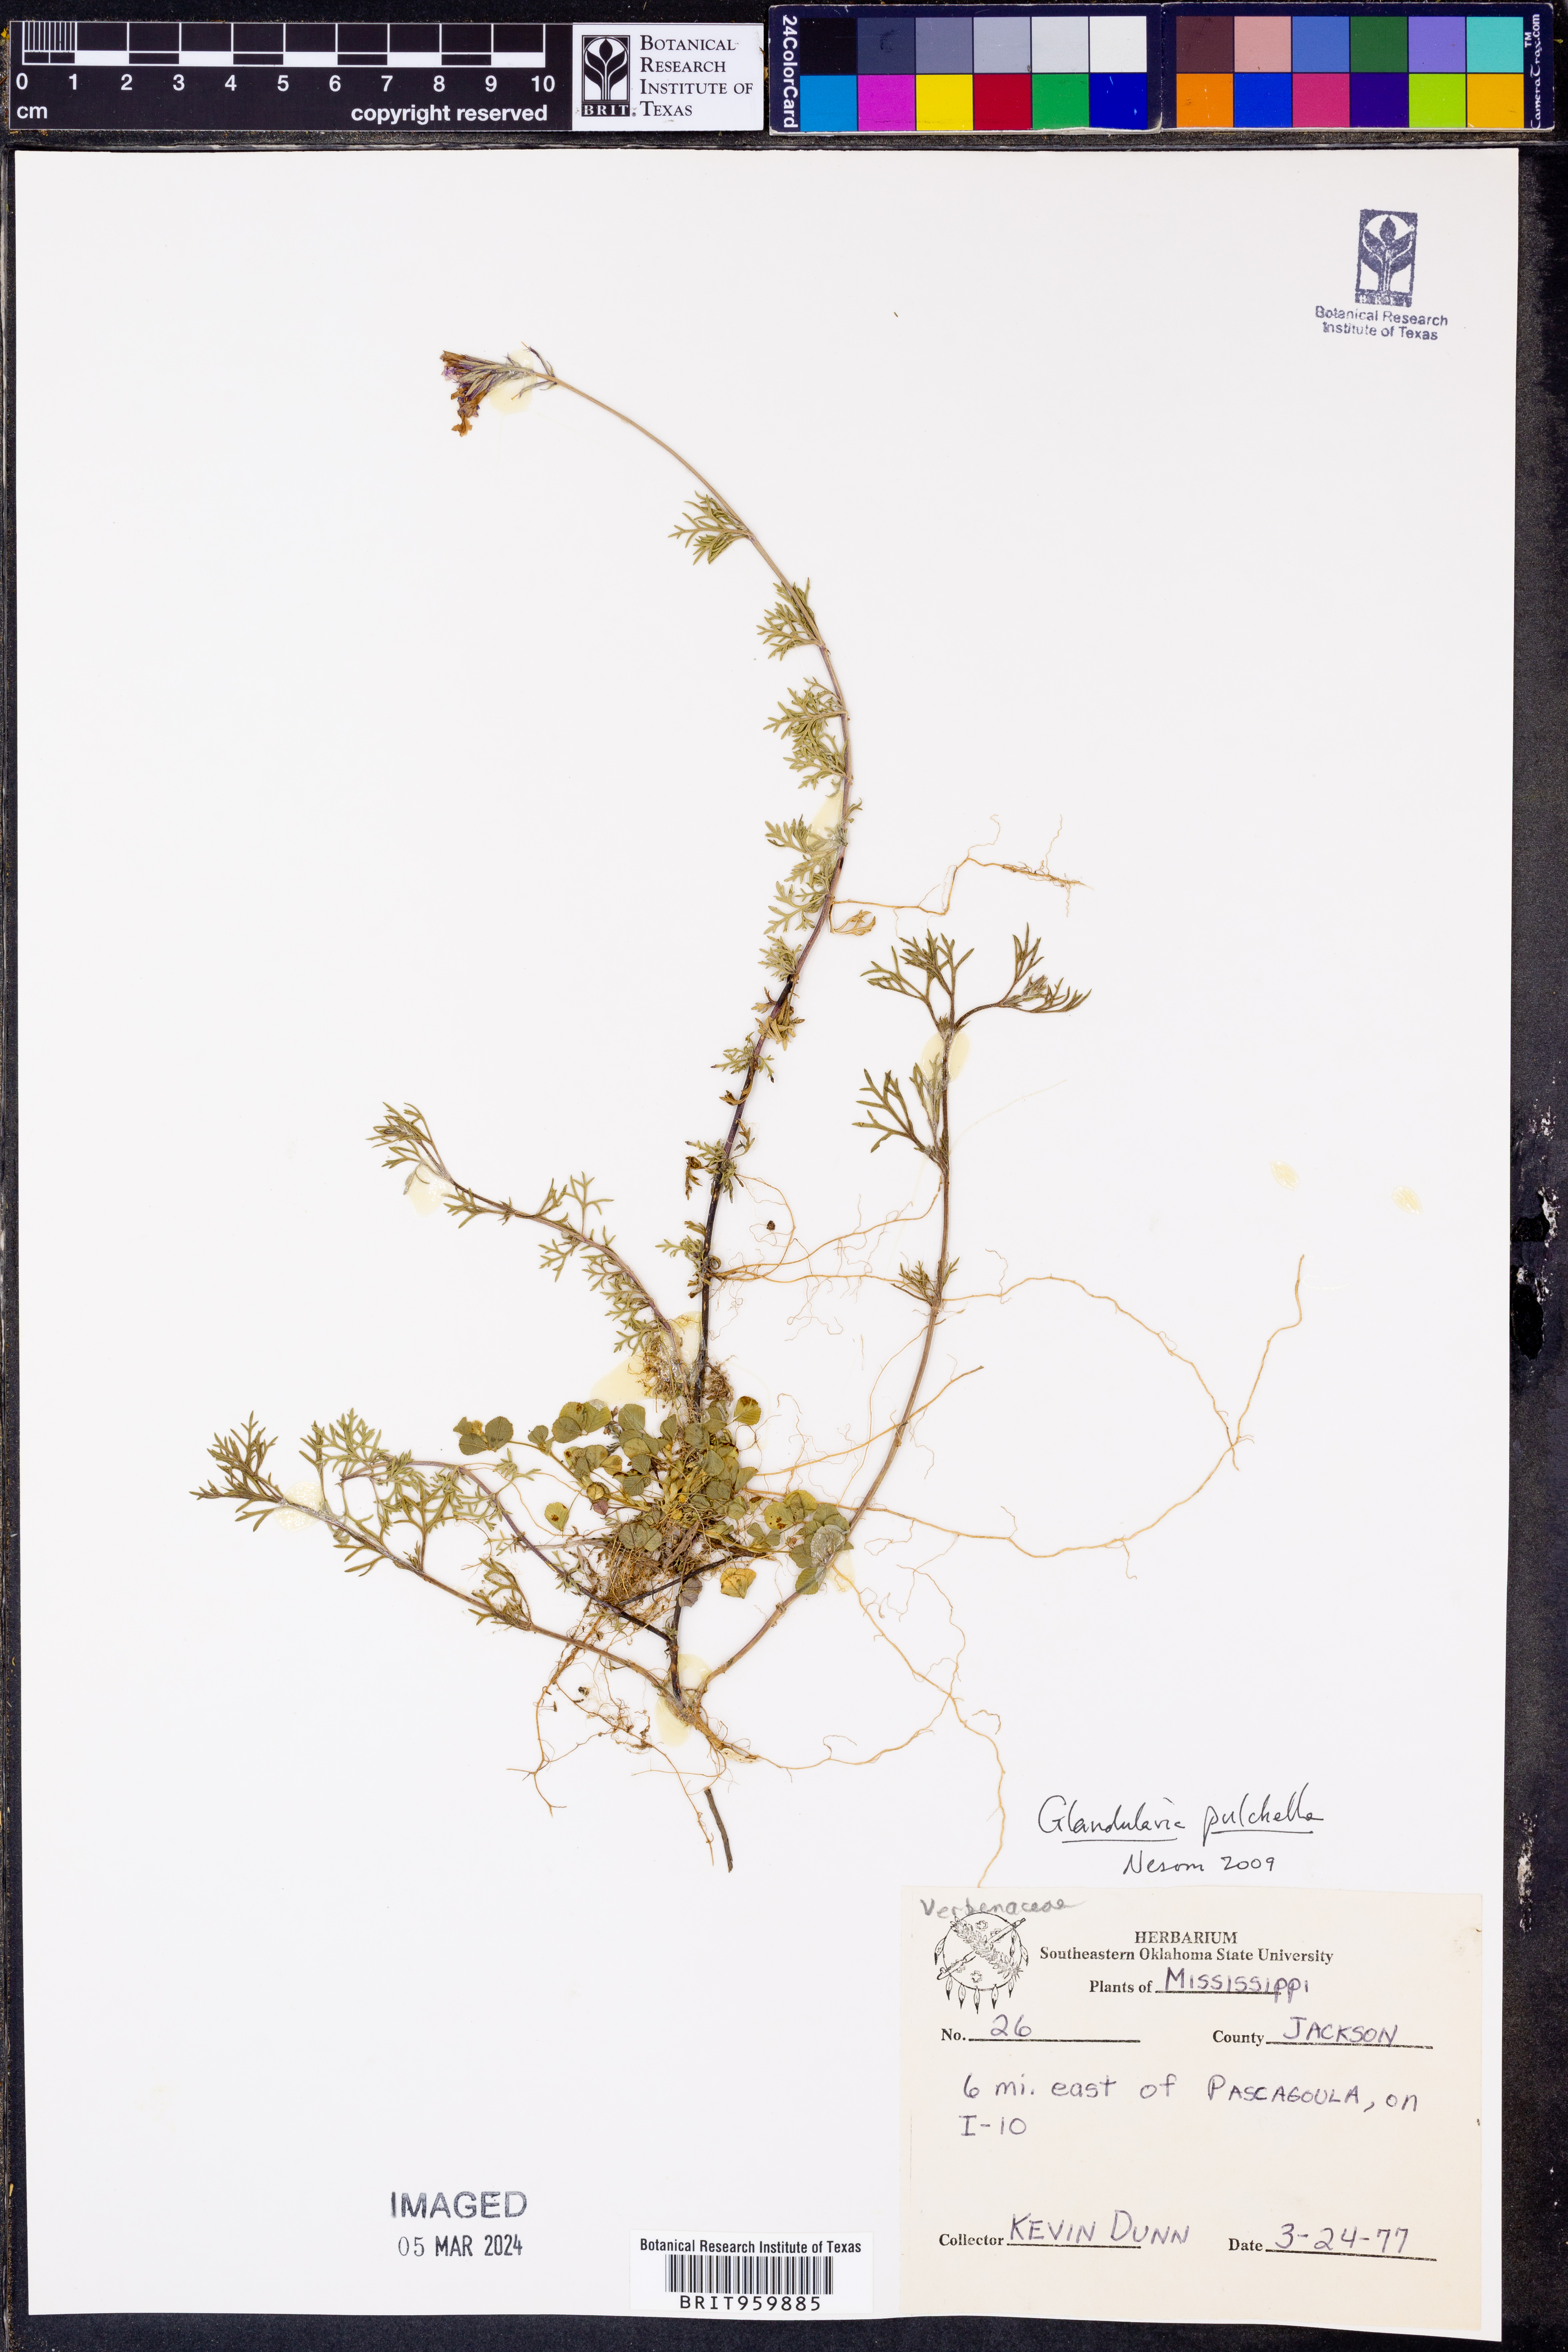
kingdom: Plantae
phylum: Tracheophyta
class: Magnoliopsida
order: Lamiales
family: Verbenaceae
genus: Verbena
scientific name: Verbena tenera
